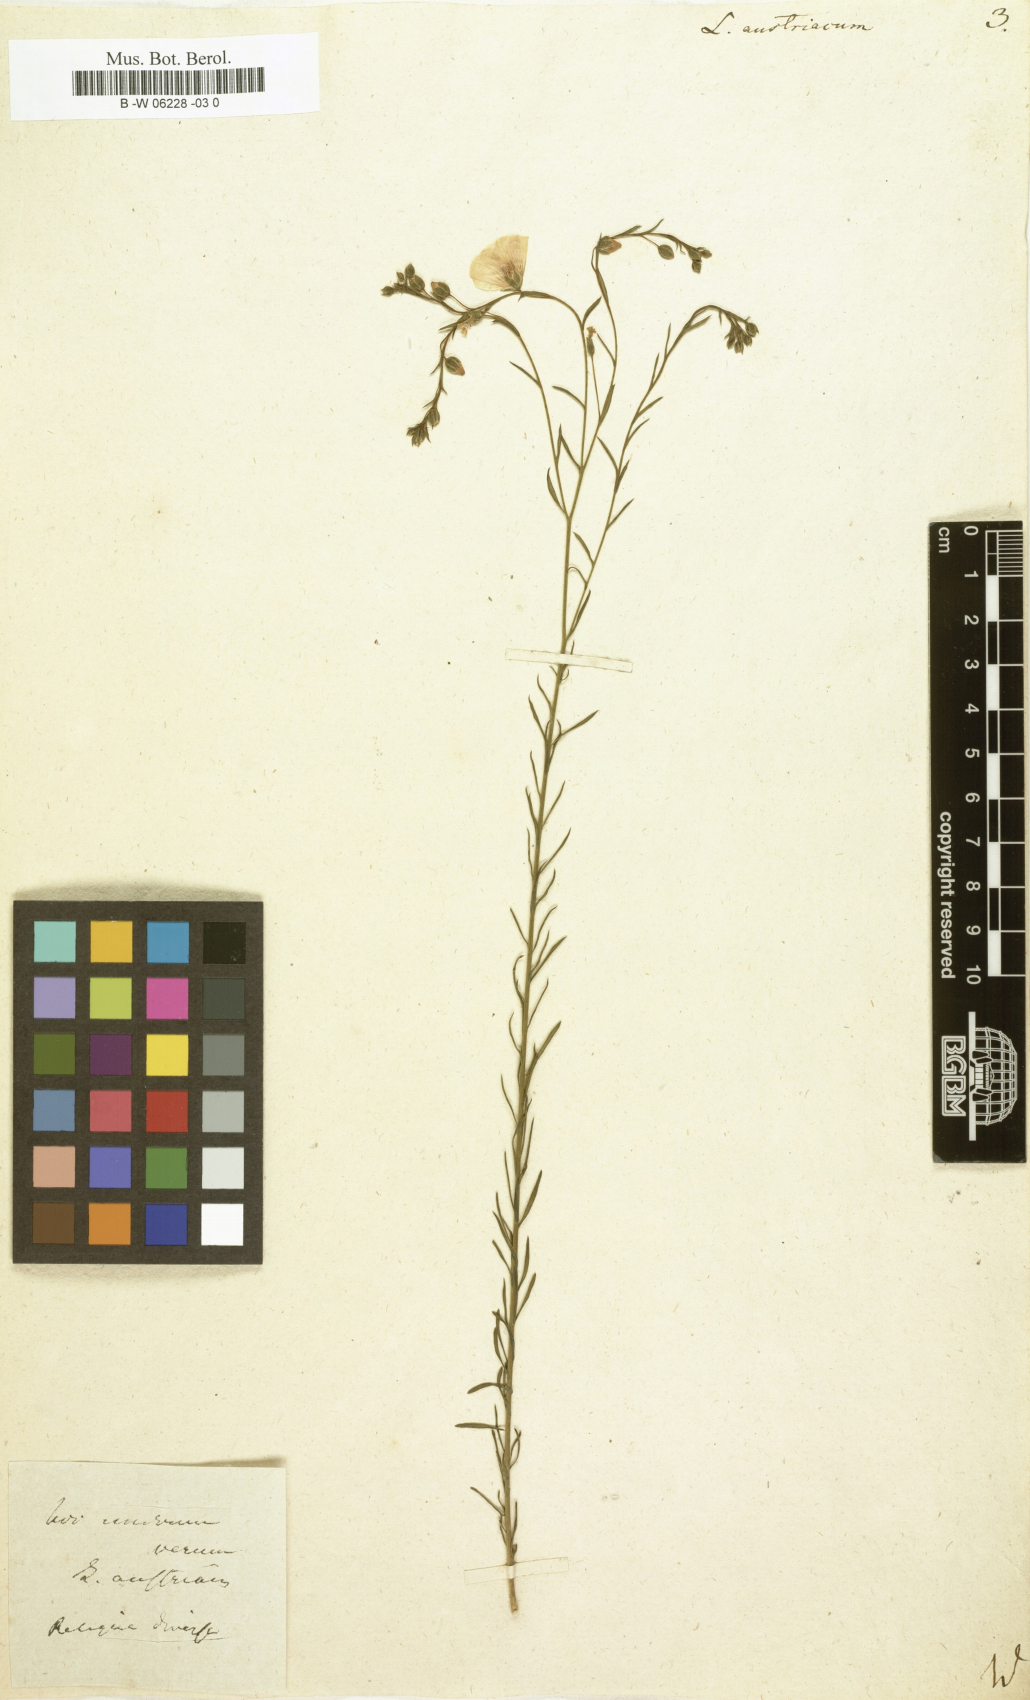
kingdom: Plantae
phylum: Tracheophyta
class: Magnoliopsida
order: Malpighiales
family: Linaceae
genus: Linum
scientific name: Linum austriacum
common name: Austrian flax
